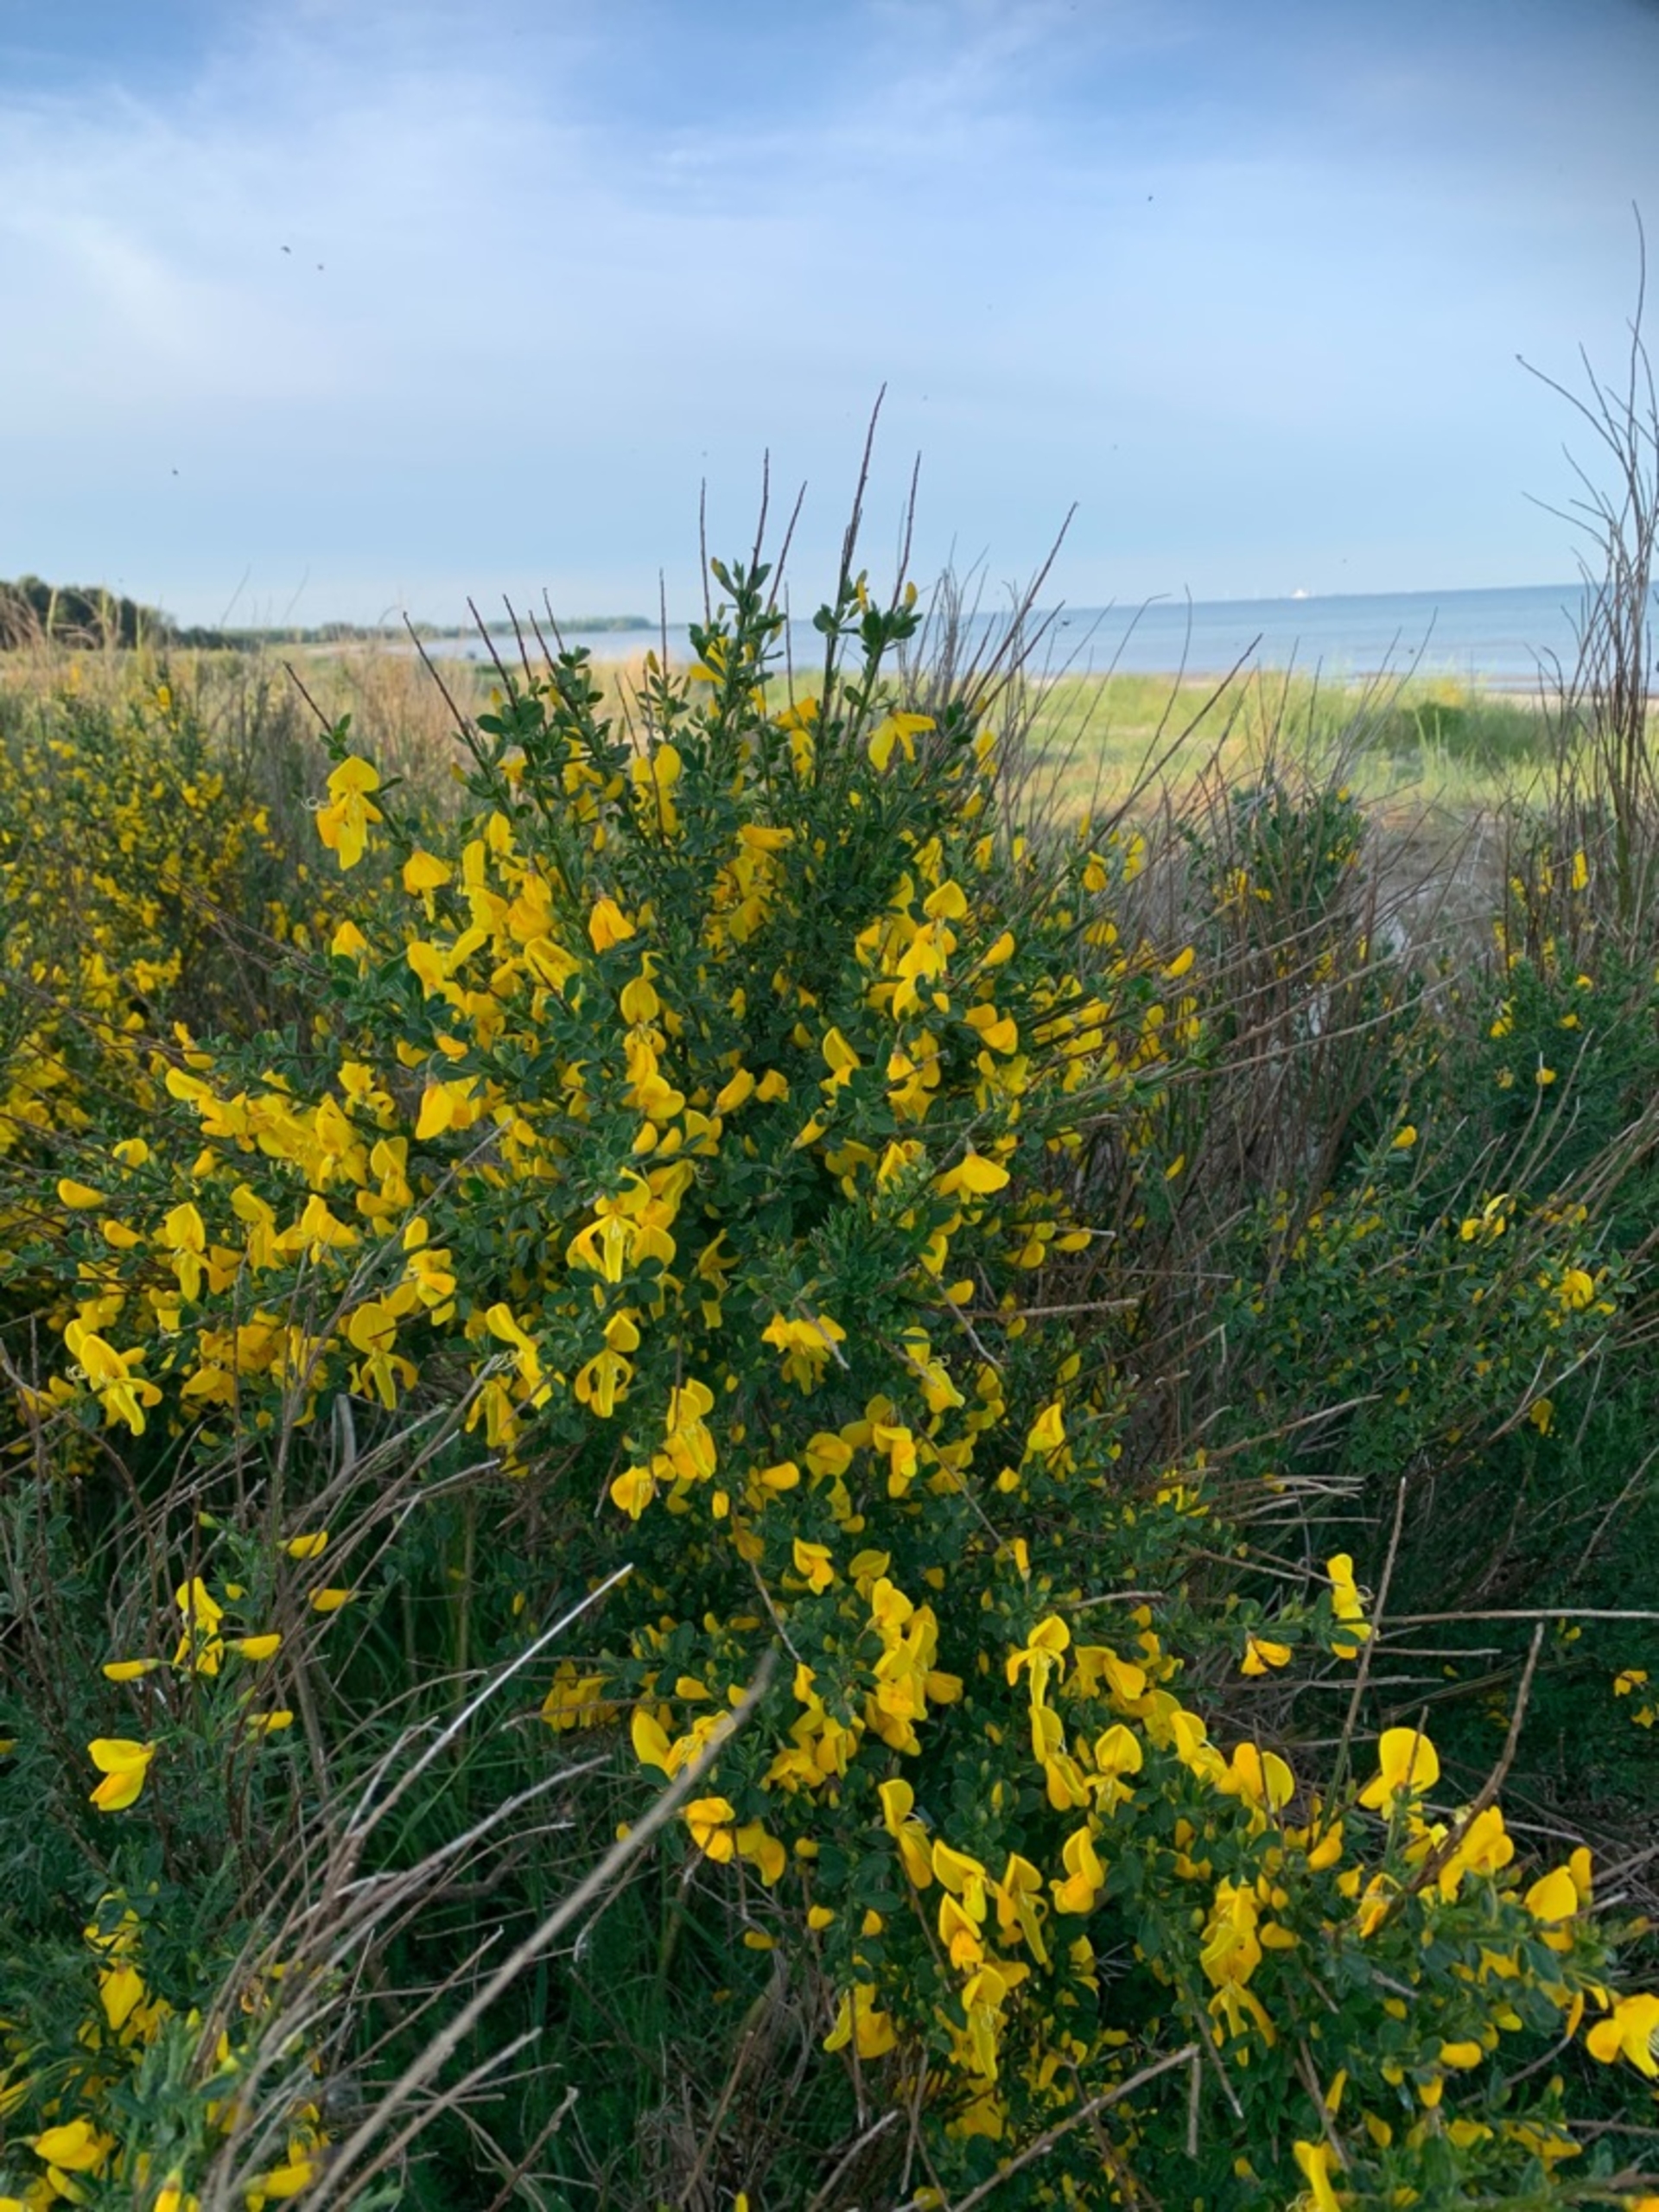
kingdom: Plantae
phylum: Tracheophyta
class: Magnoliopsida
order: Fabales
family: Fabaceae
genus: Cytisus
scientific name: Cytisus scoparius
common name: Lav gyvel
